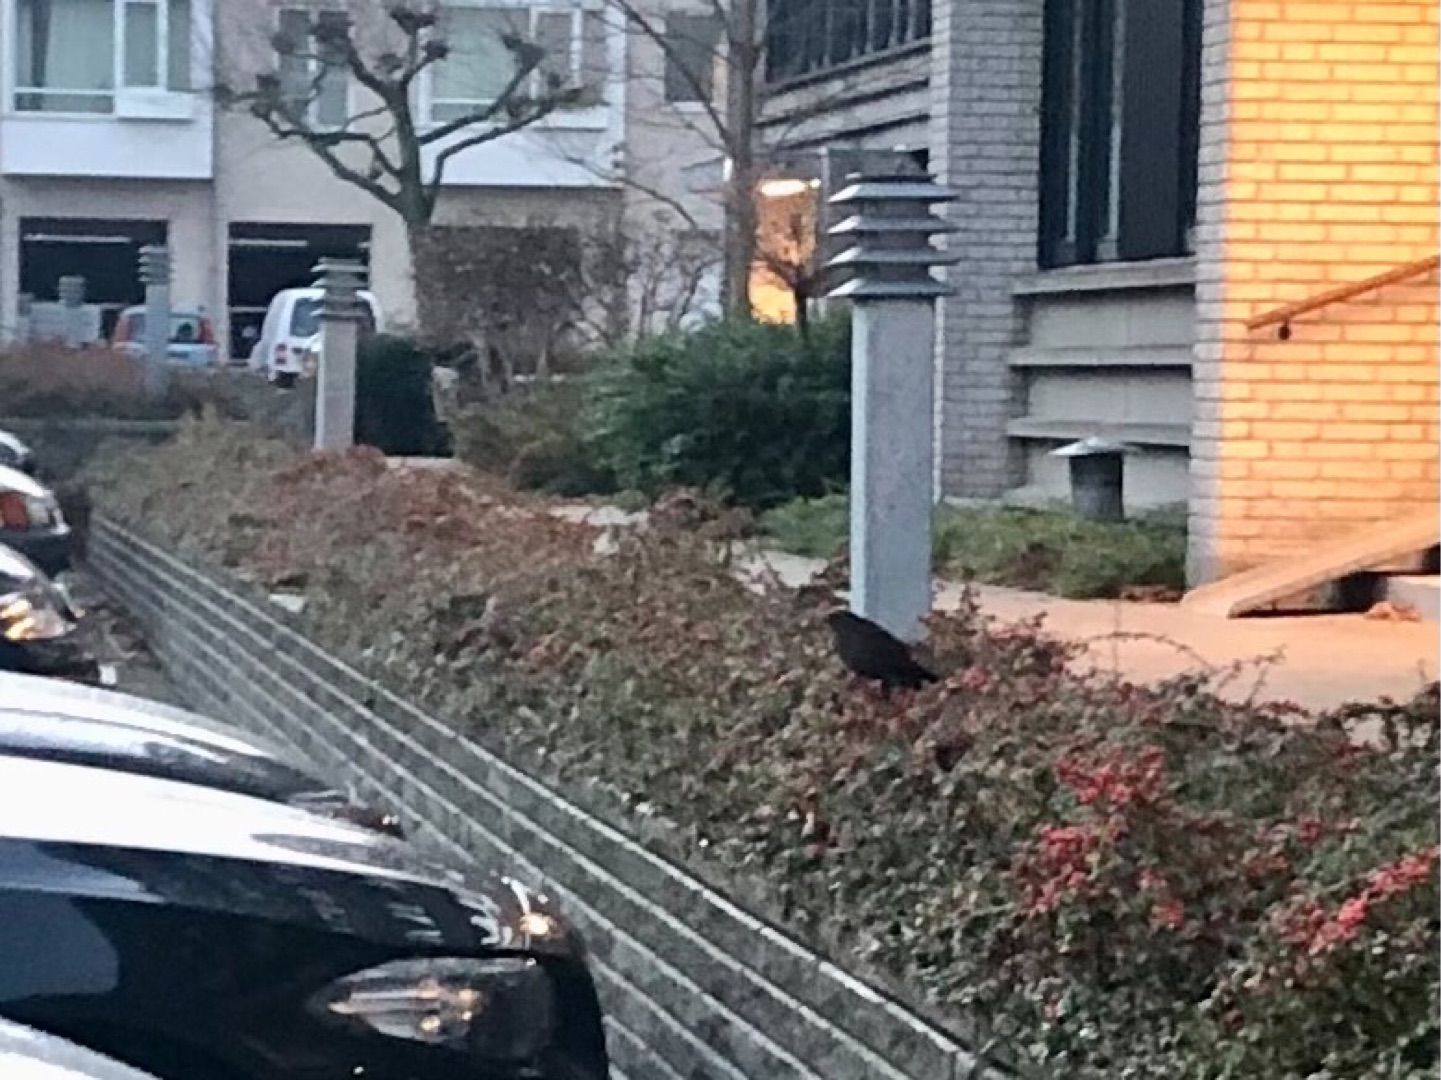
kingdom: Animalia
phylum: Chordata
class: Aves
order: Passeriformes
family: Turdidae
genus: Turdus
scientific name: Turdus merula
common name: Solsort
